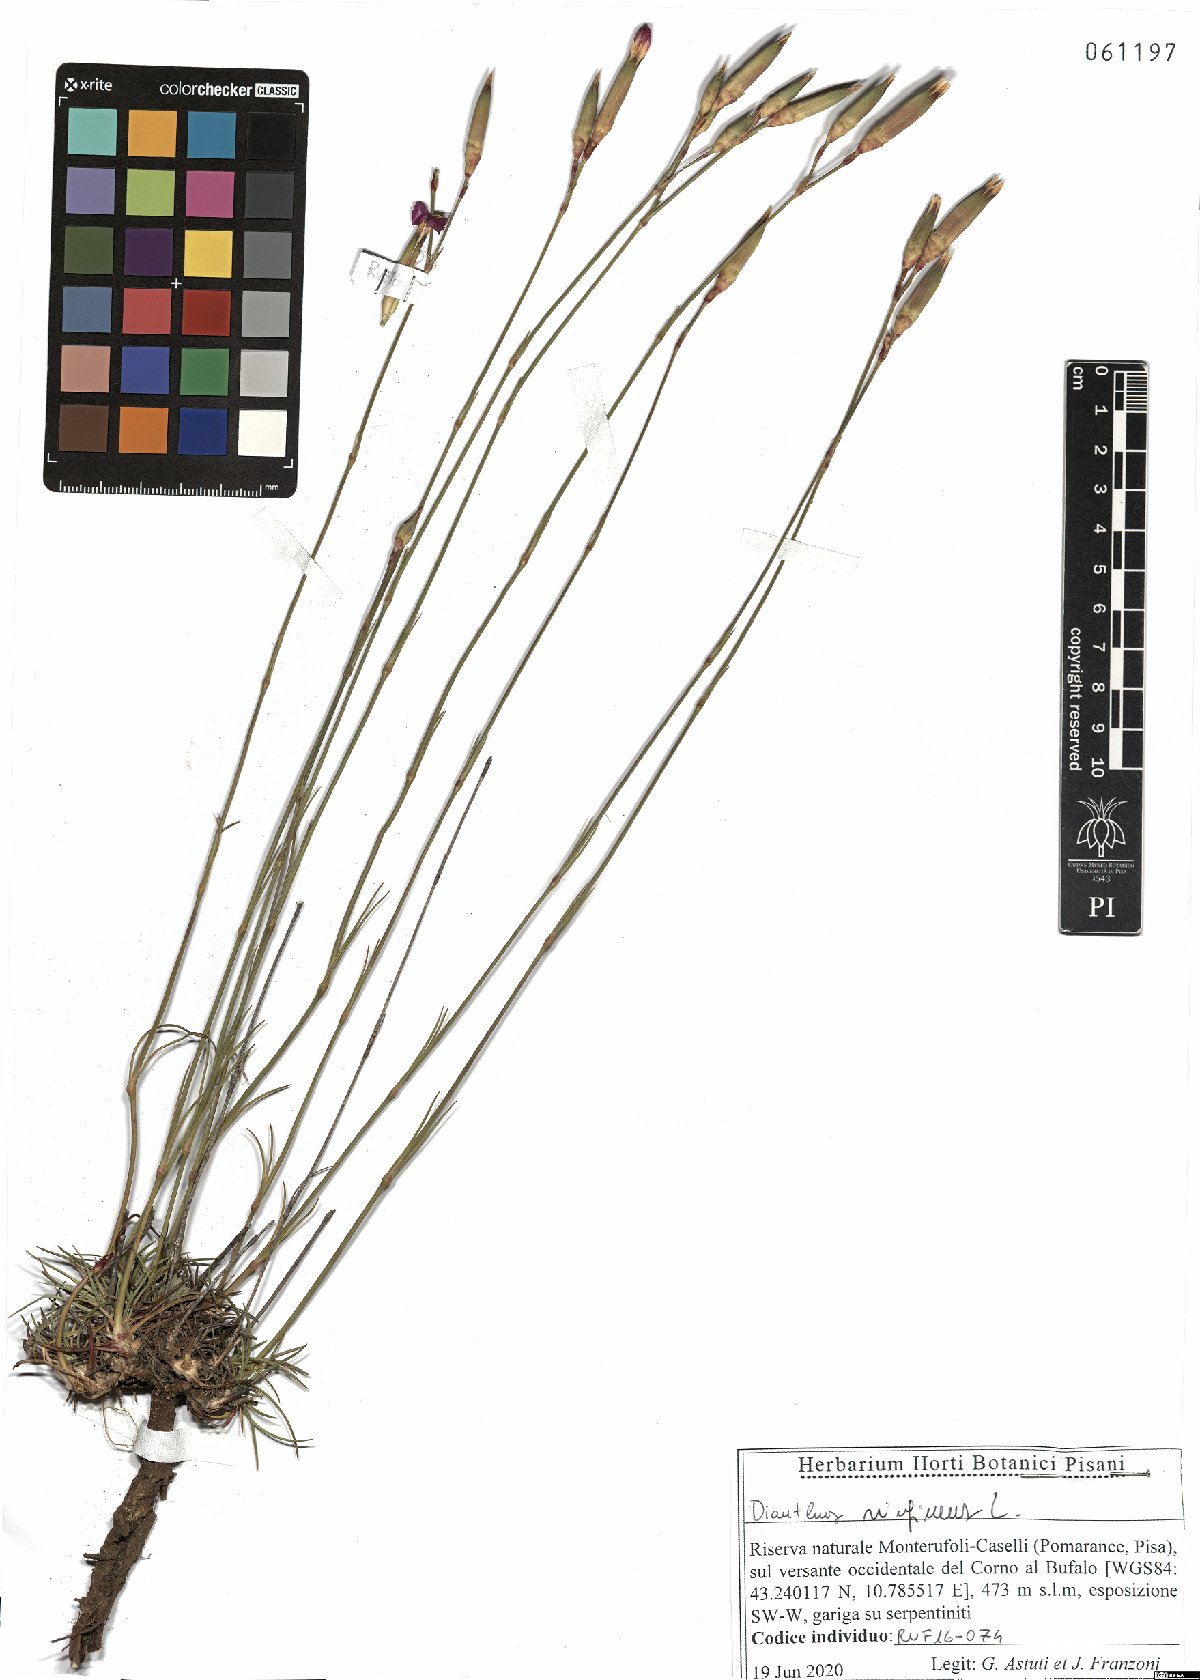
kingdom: Plantae
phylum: Tracheophyta
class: Magnoliopsida
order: Caryophyllales
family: Caryophyllaceae
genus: Dianthus
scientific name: Dianthus virgineus
